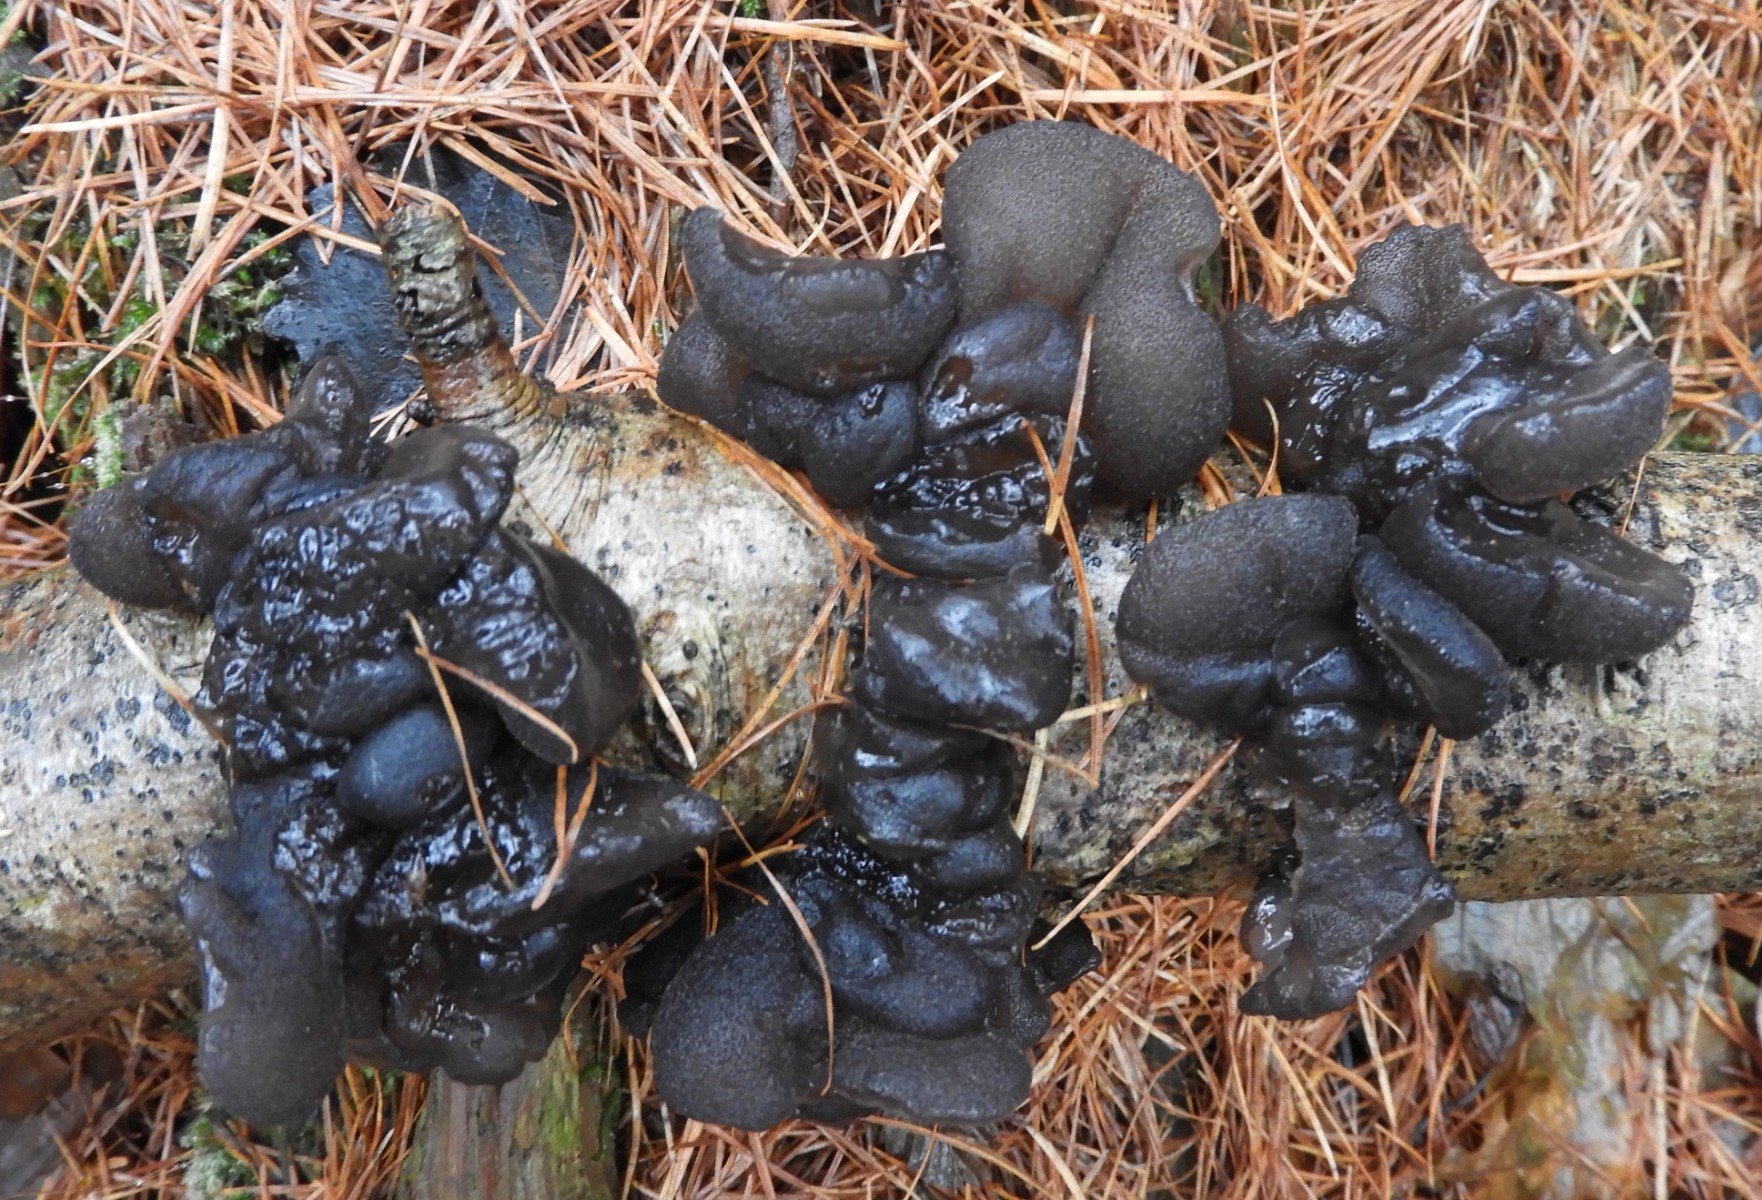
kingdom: Fungi
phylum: Basidiomycota
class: Agaricomycetes
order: Auriculariales
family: Auriculariaceae
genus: Exidia
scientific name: Exidia glandulosa
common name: ege-bævretop
